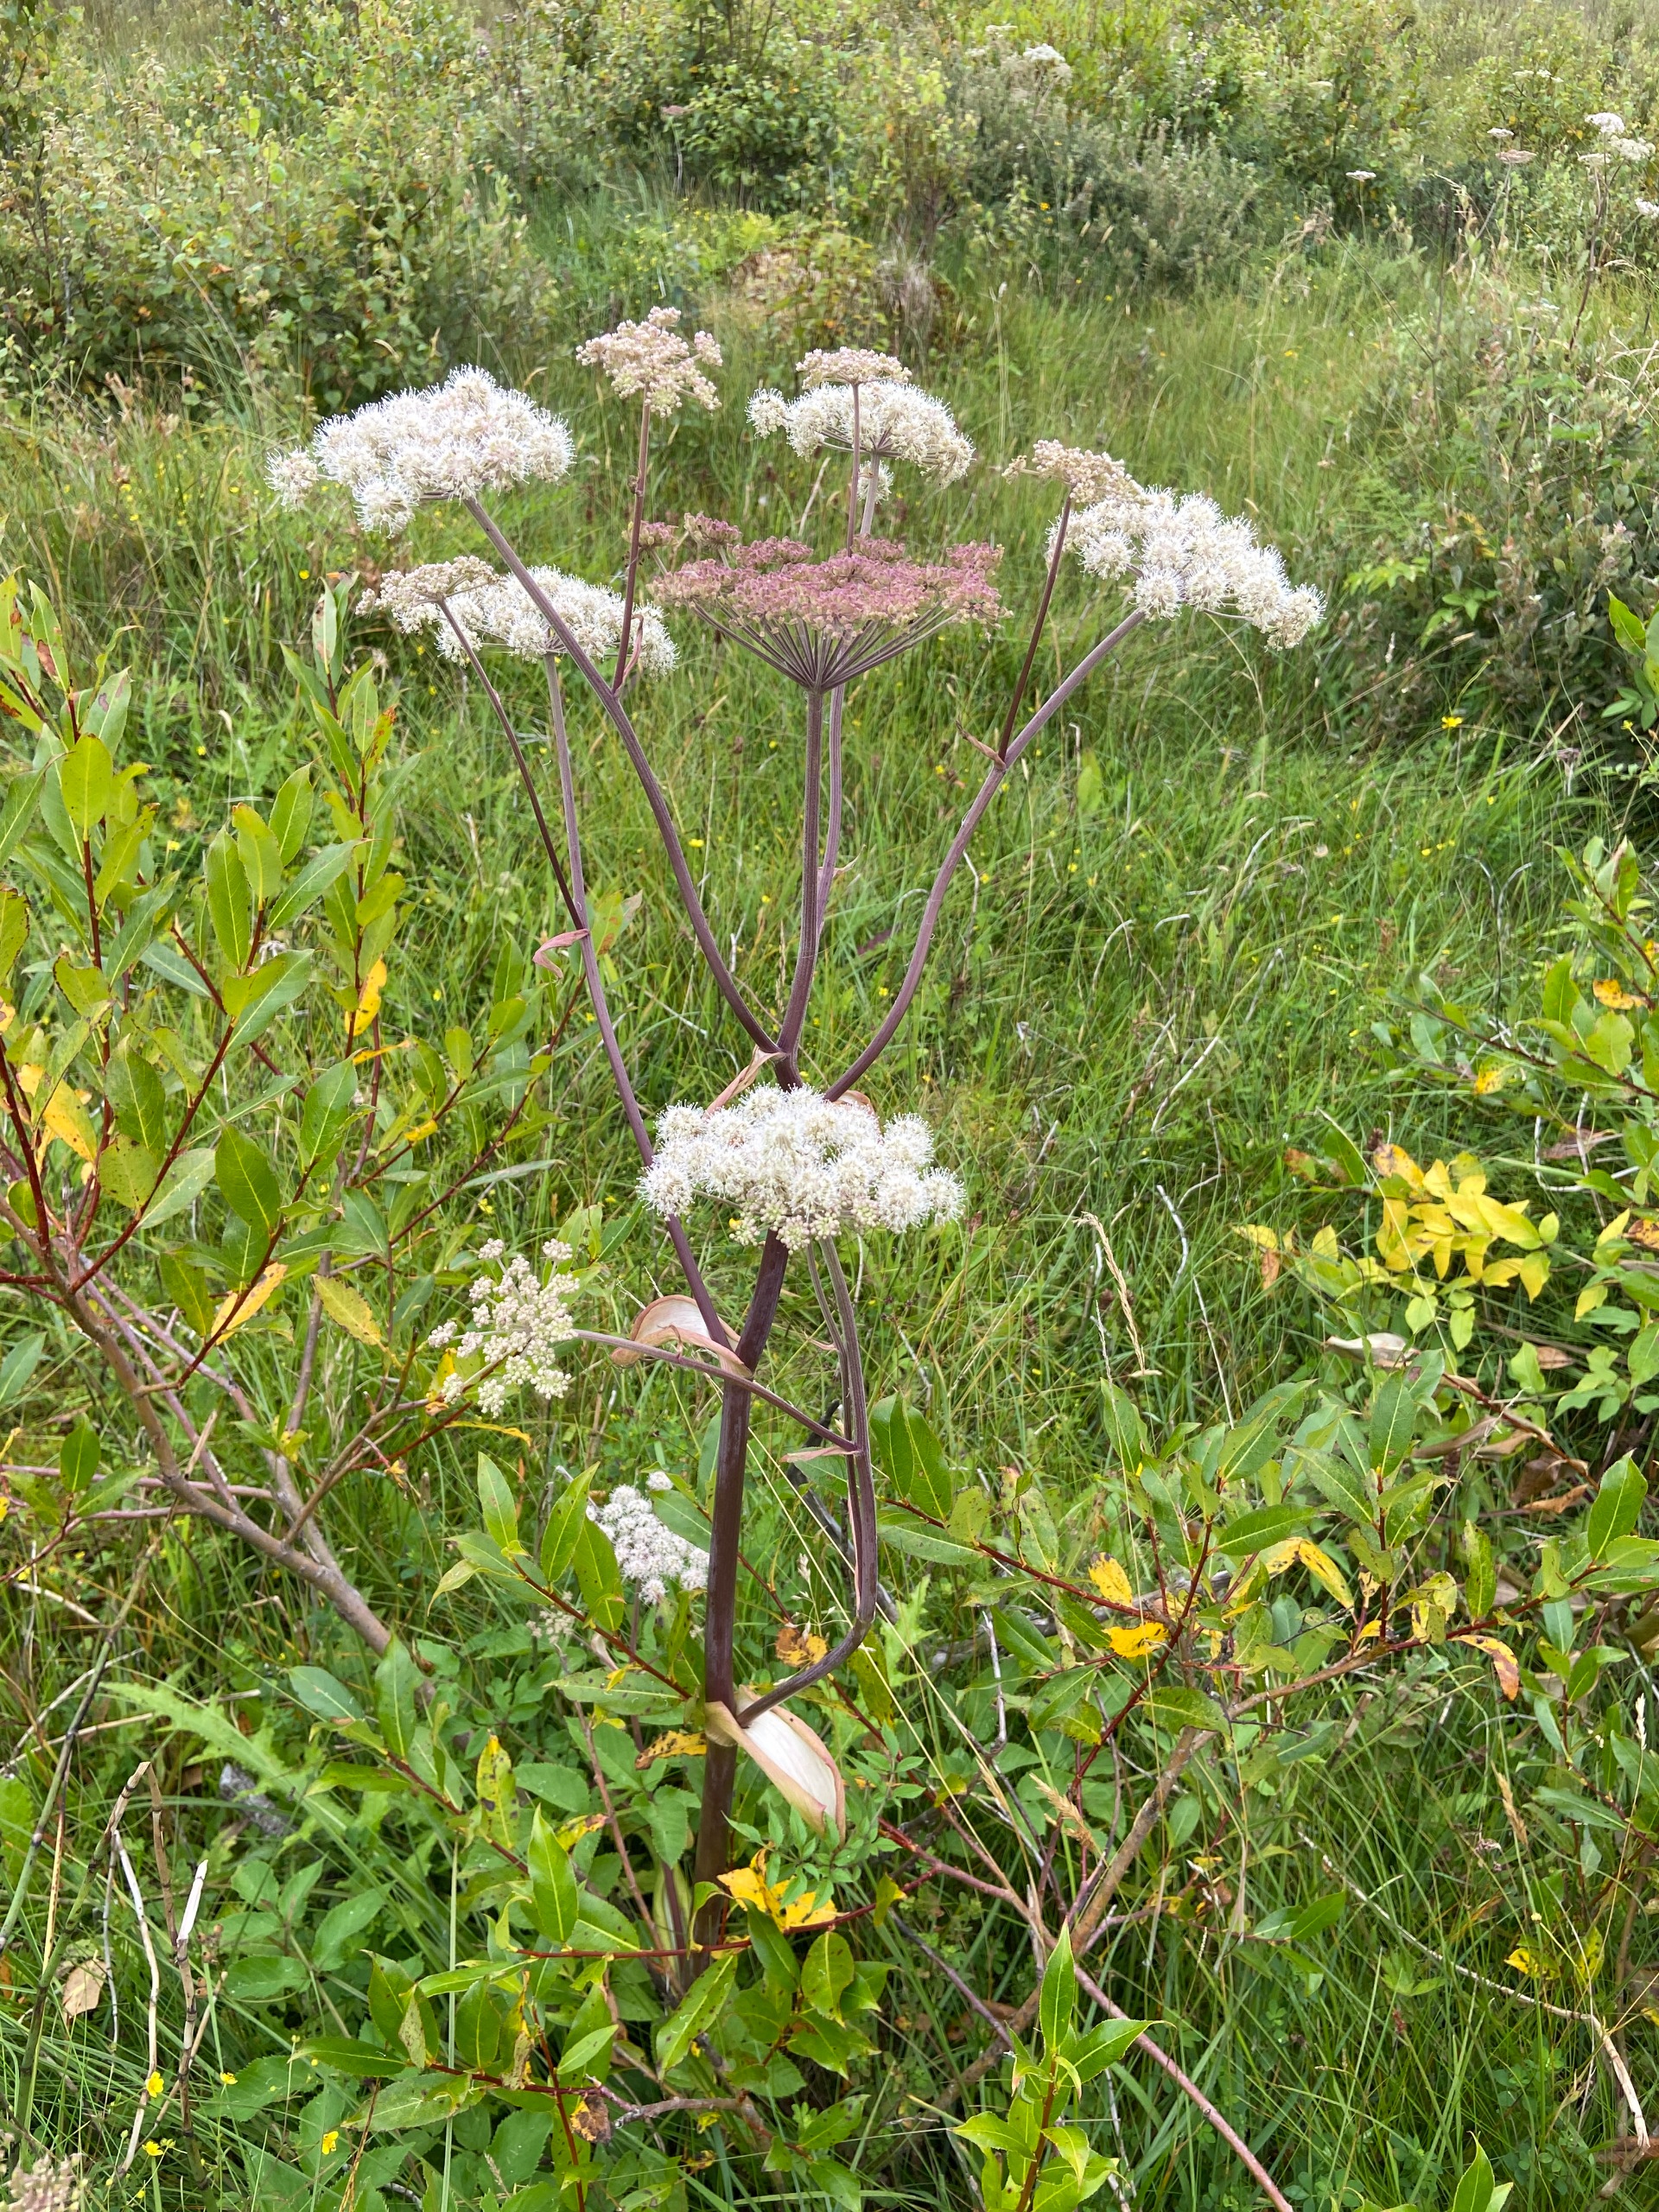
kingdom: Plantae
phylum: Tracheophyta
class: Magnoliopsida
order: Apiales
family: Apiaceae
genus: Angelica
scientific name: Angelica sylvestris
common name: Angelik
